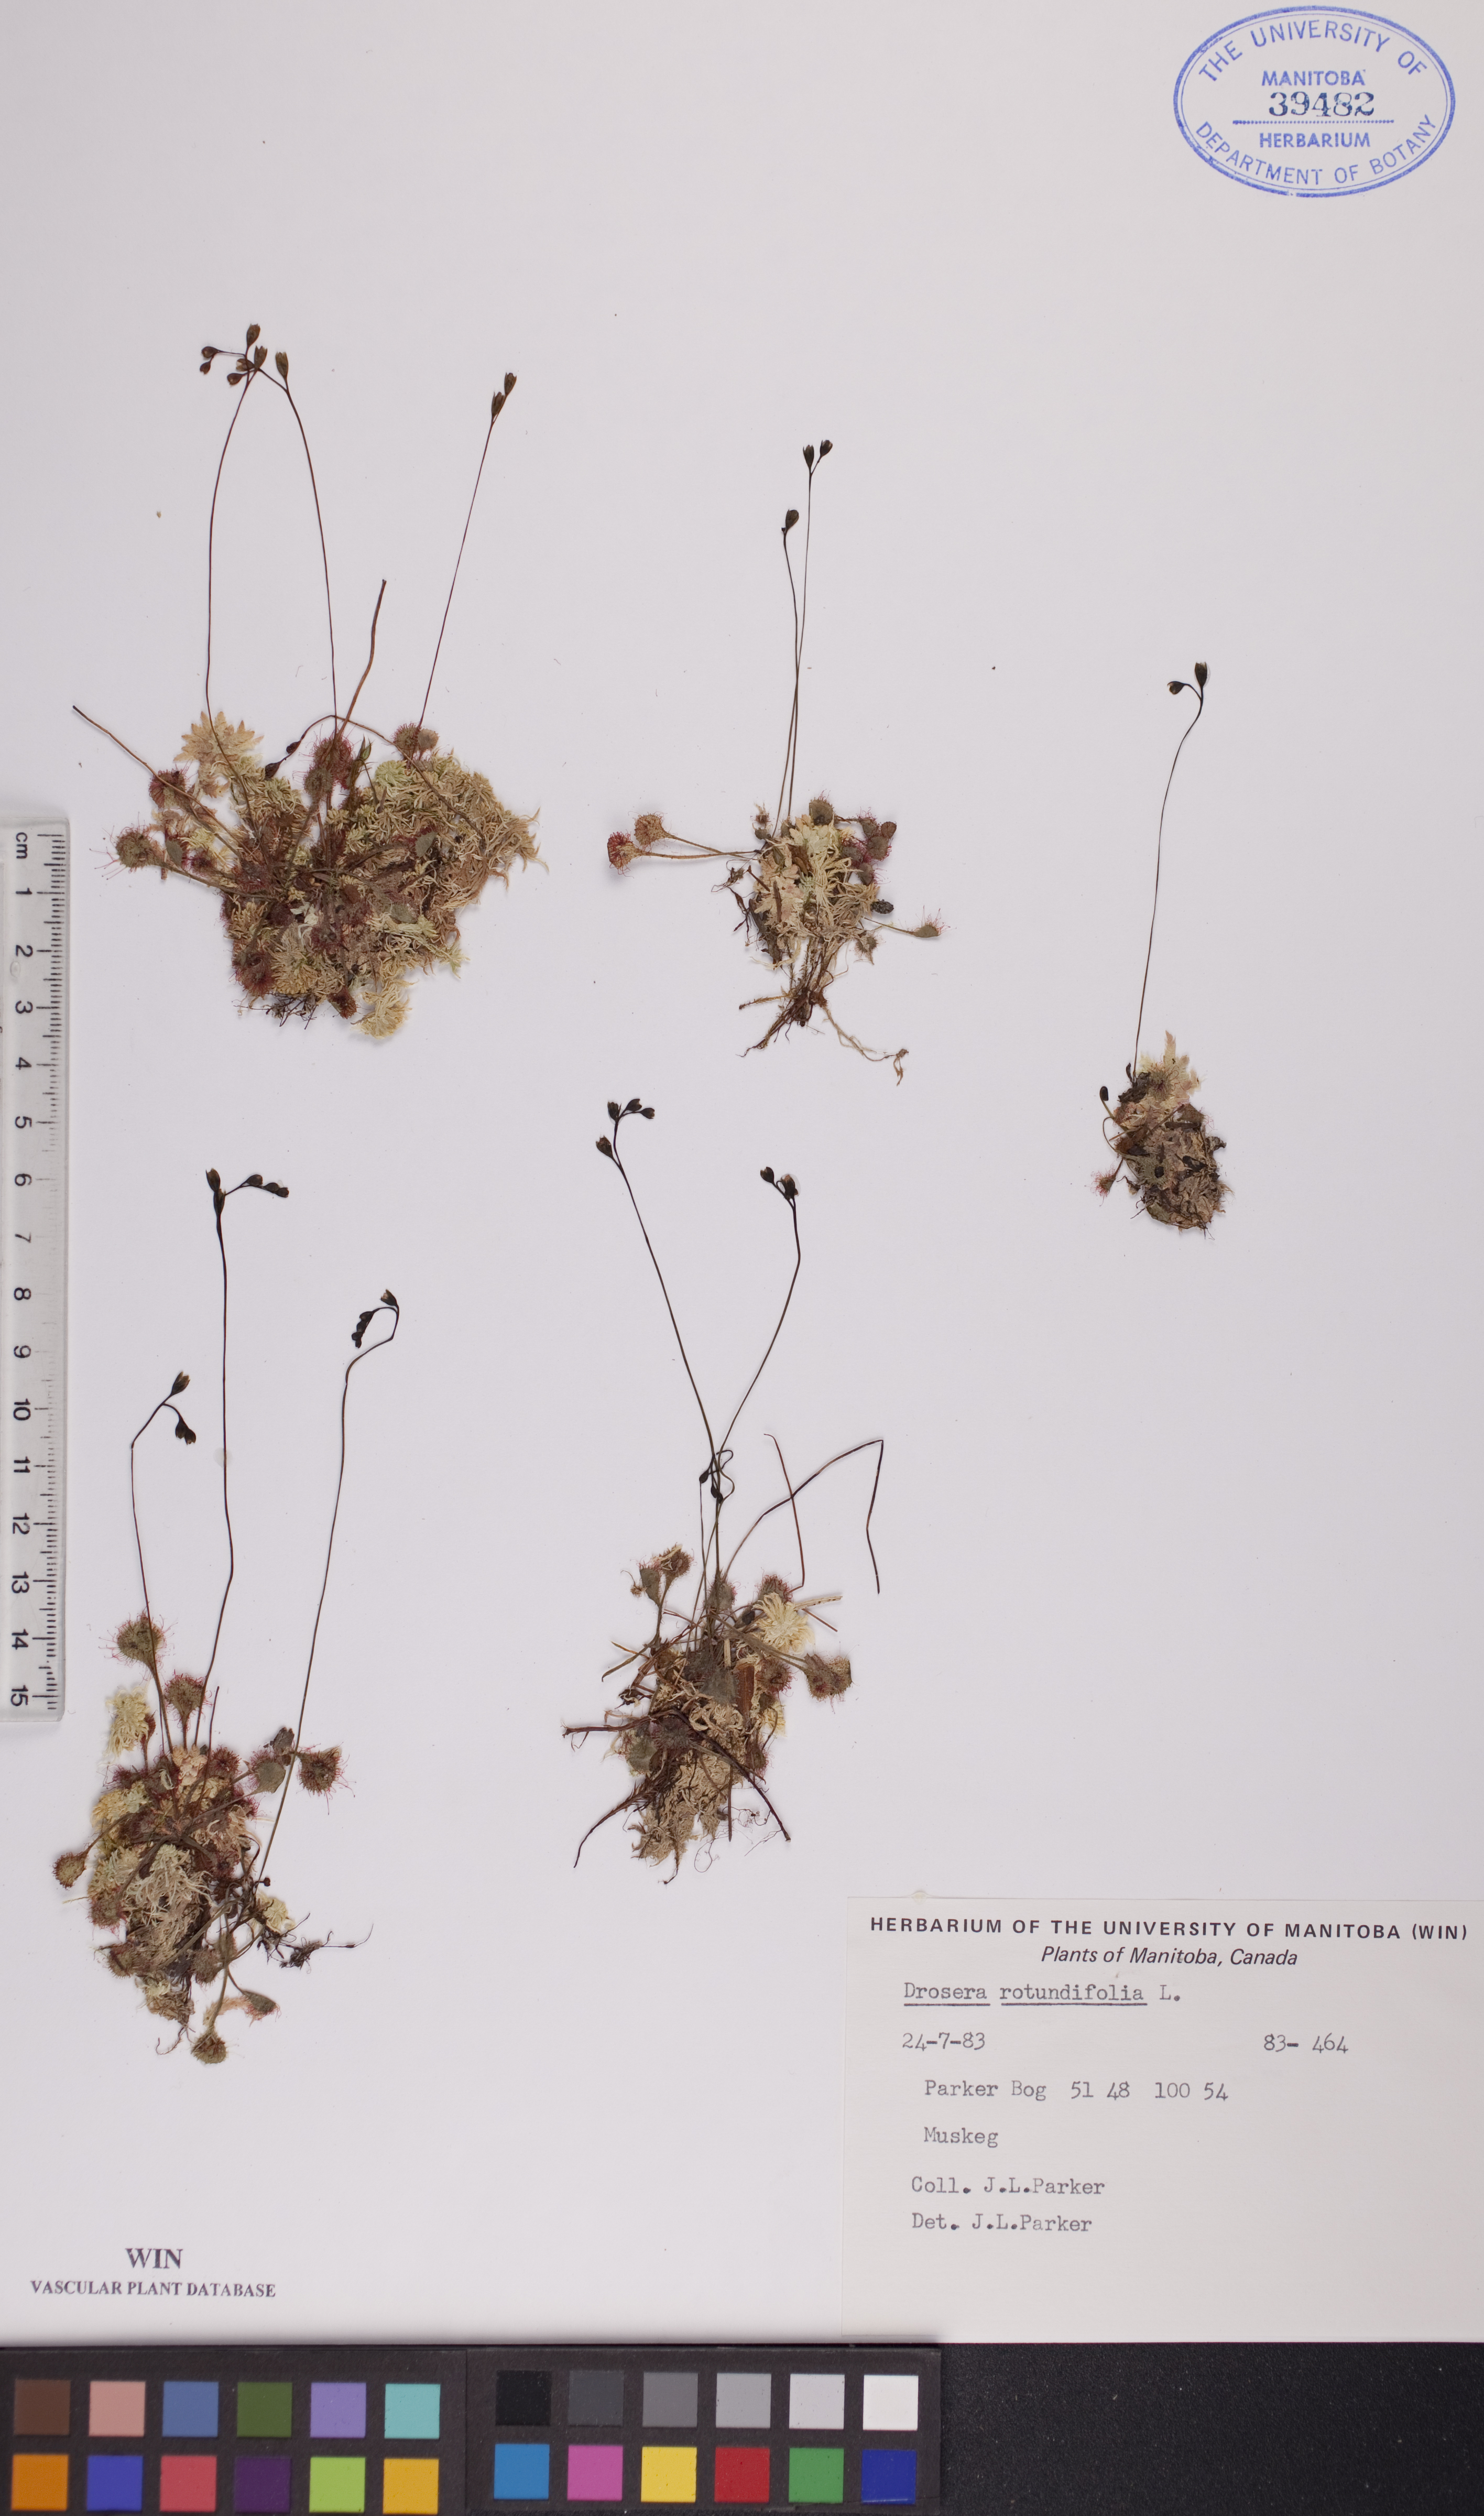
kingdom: Plantae
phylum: Tracheophyta
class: Magnoliopsida
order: Caryophyllales
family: Droseraceae
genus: Drosera
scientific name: Drosera rotundifolia
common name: Round-leaved sundew
